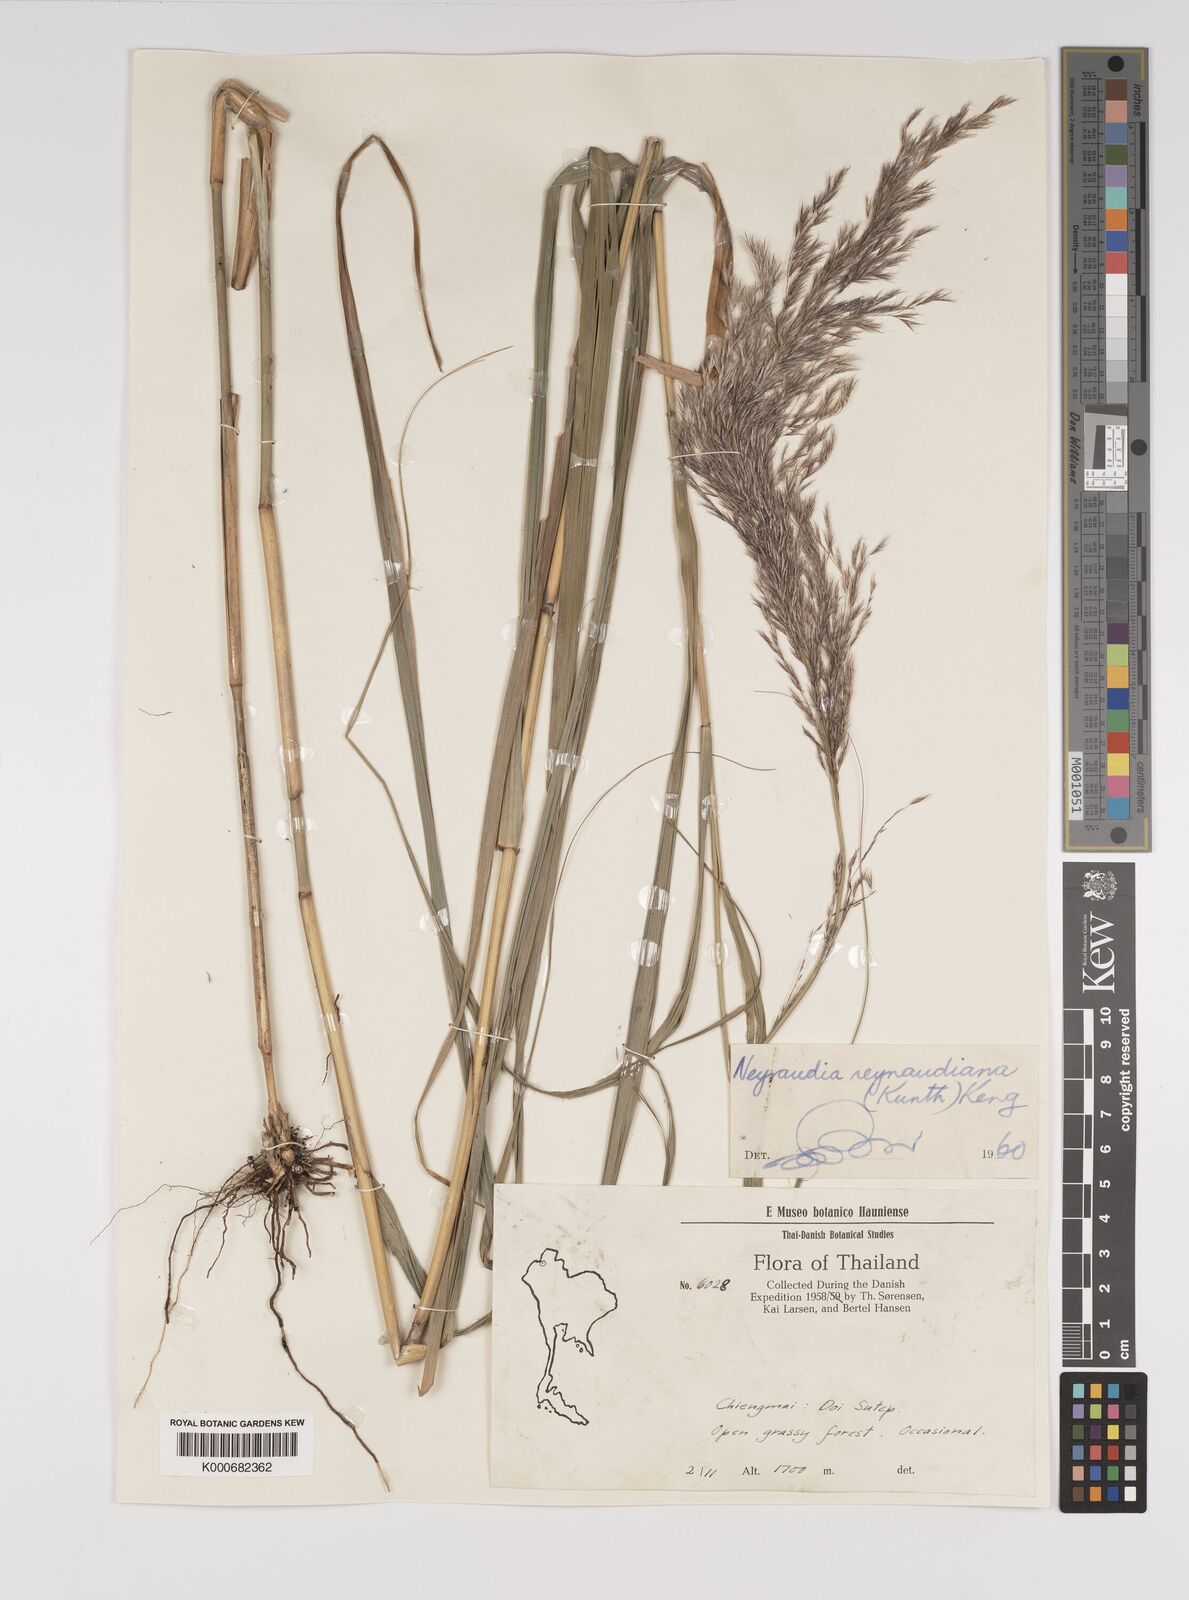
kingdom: Plantae
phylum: Tracheophyta
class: Liliopsida
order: Poales
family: Poaceae
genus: Neyraudia
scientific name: Neyraudia reynaudiana
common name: Silkreed
